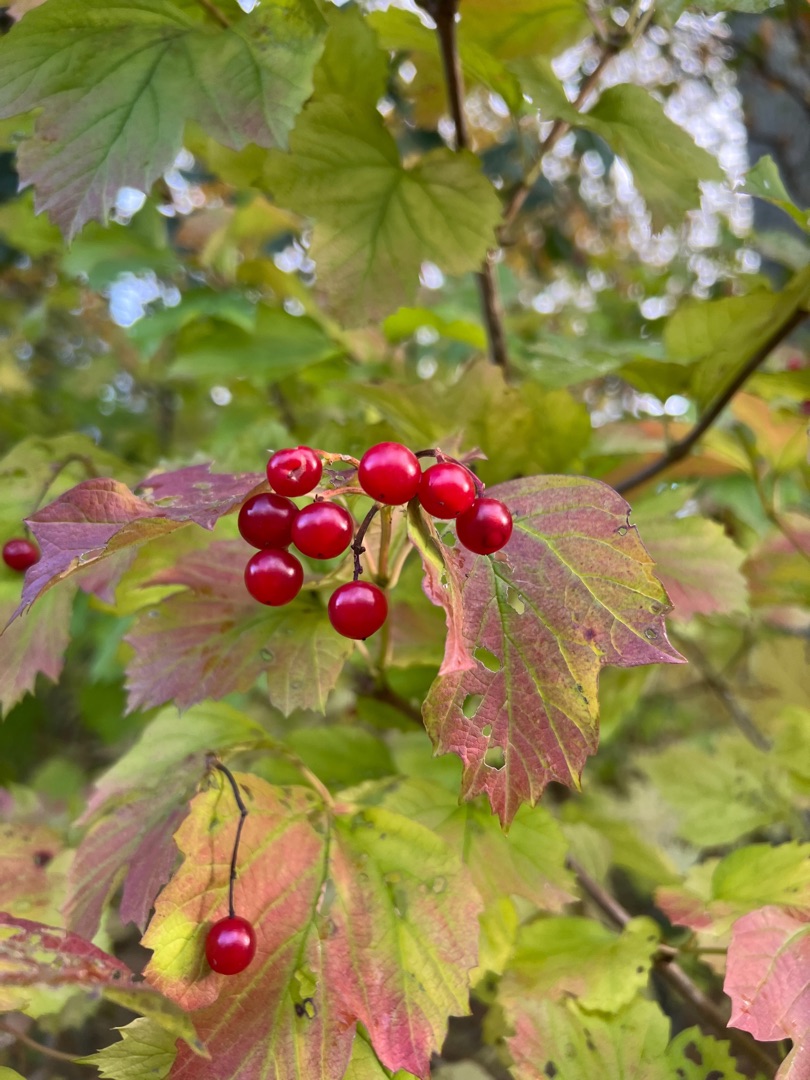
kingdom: Plantae
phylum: Tracheophyta
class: Magnoliopsida
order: Dipsacales
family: Viburnaceae
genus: Viburnum
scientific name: Viburnum opulus
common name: Kvalkved
